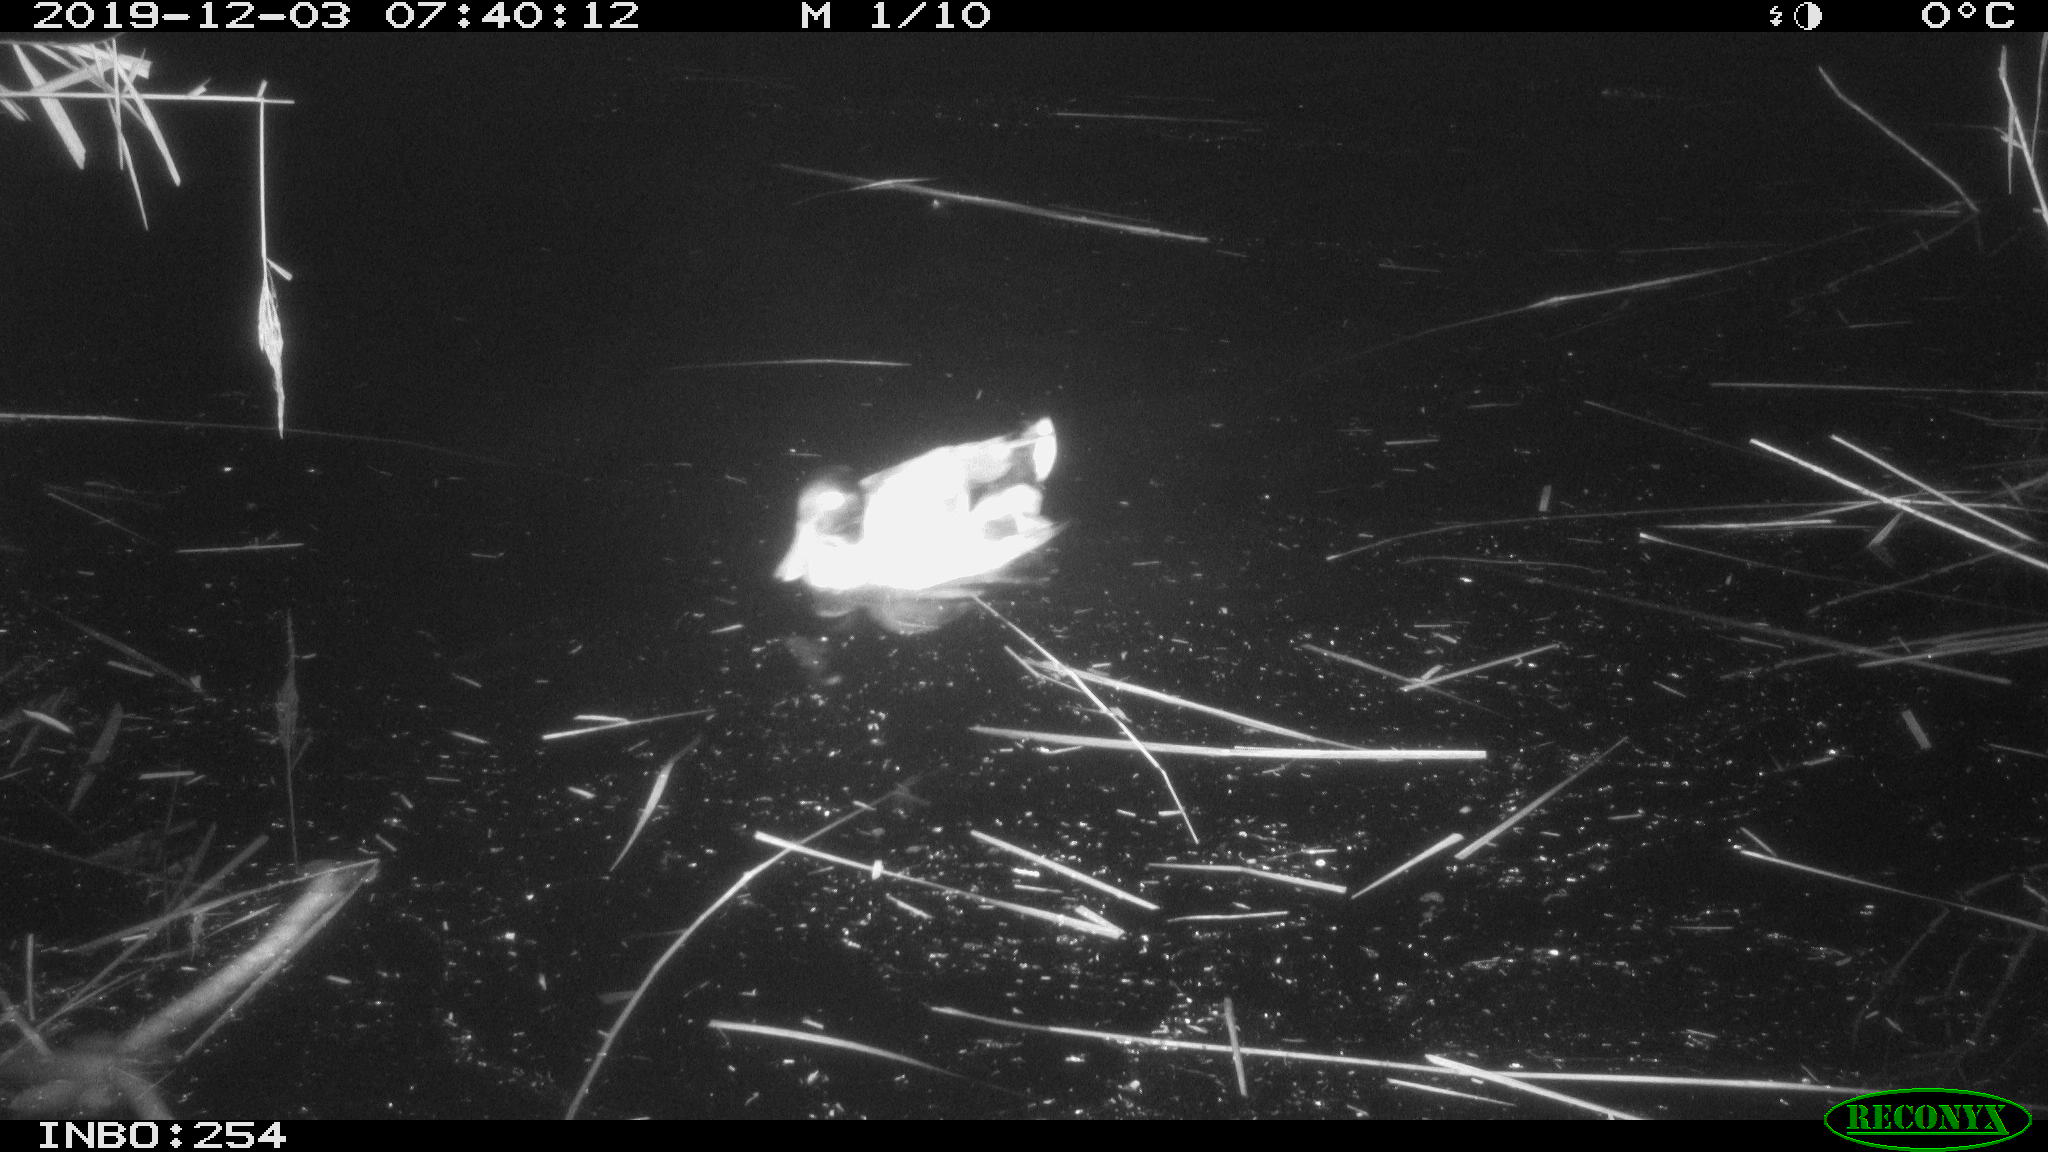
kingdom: Animalia
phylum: Chordata
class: Aves
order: Anseriformes
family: Anatidae
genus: Anas
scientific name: Anas platyrhynchos
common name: Mallard
